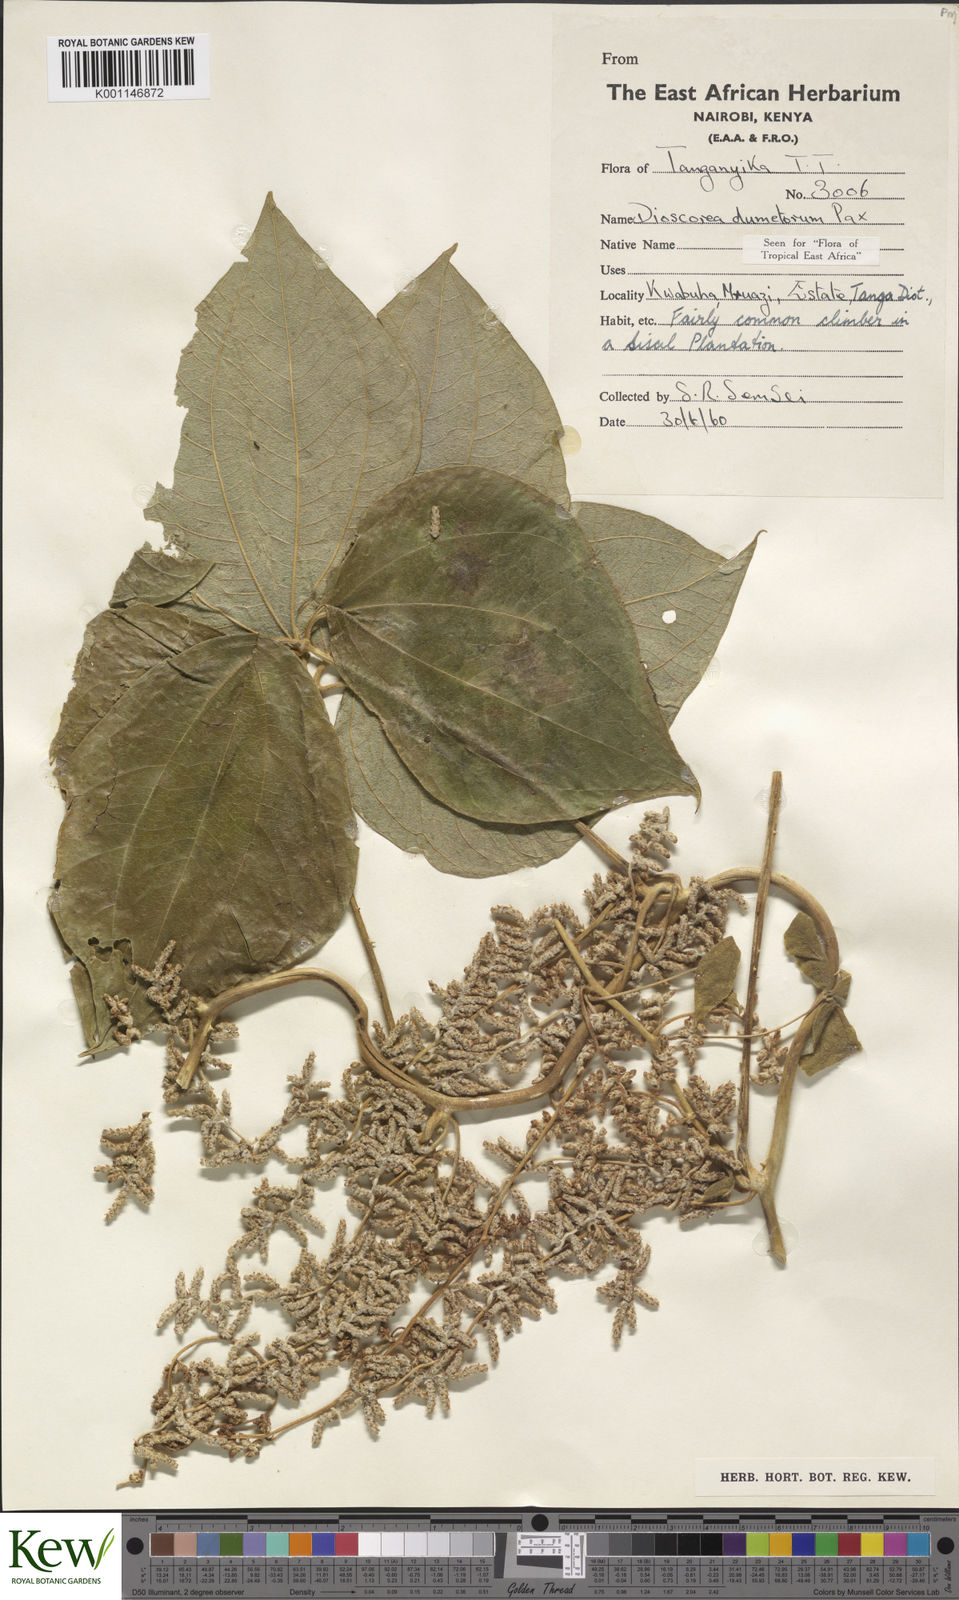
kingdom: Plantae
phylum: Tracheophyta
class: Liliopsida
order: Dioscoreales
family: Dioscoreaceae
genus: Dioscorea
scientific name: Dioscorea dumetorum
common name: African bitter yam
